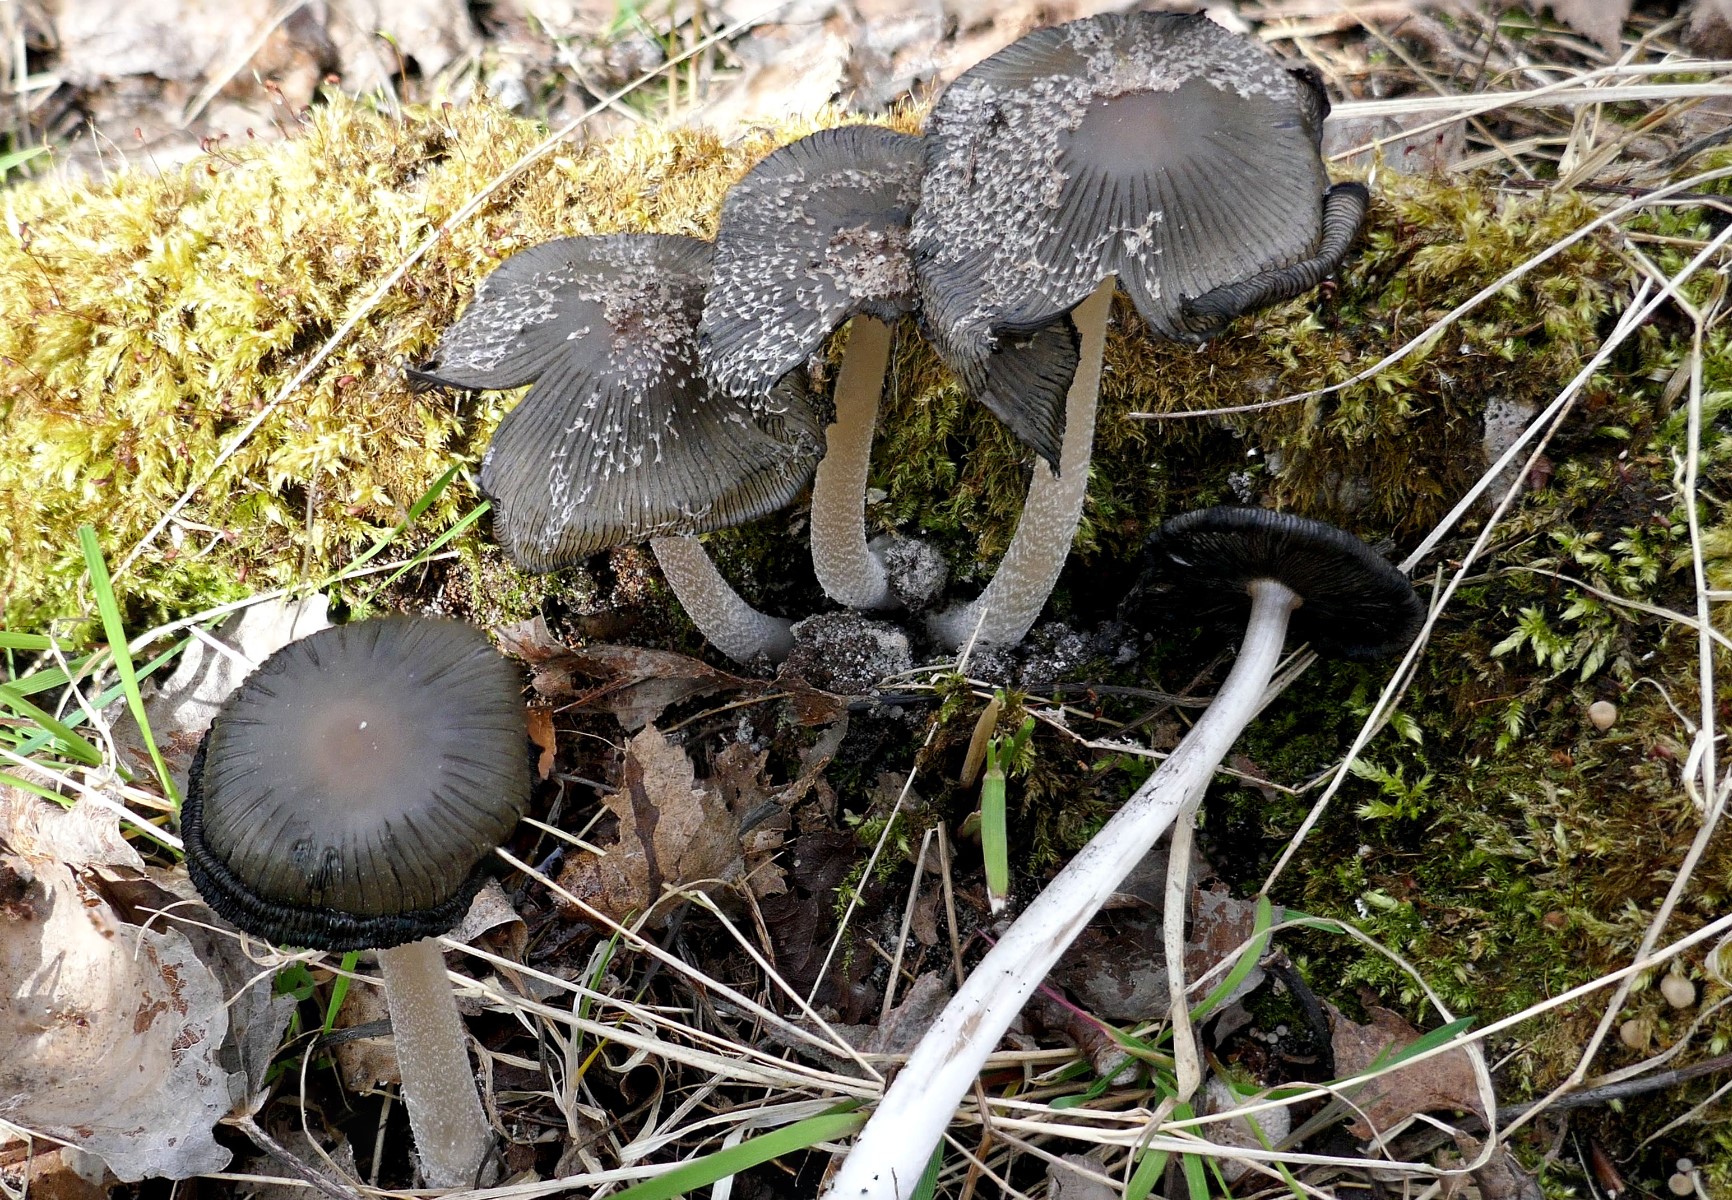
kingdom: Fungi
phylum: Basidiomycota
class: Agaricomycetes
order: Agaricales
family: Psathyrellaceae
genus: Coprinopsis
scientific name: Coprinopsis lagopus
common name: dunstokket blækhat
